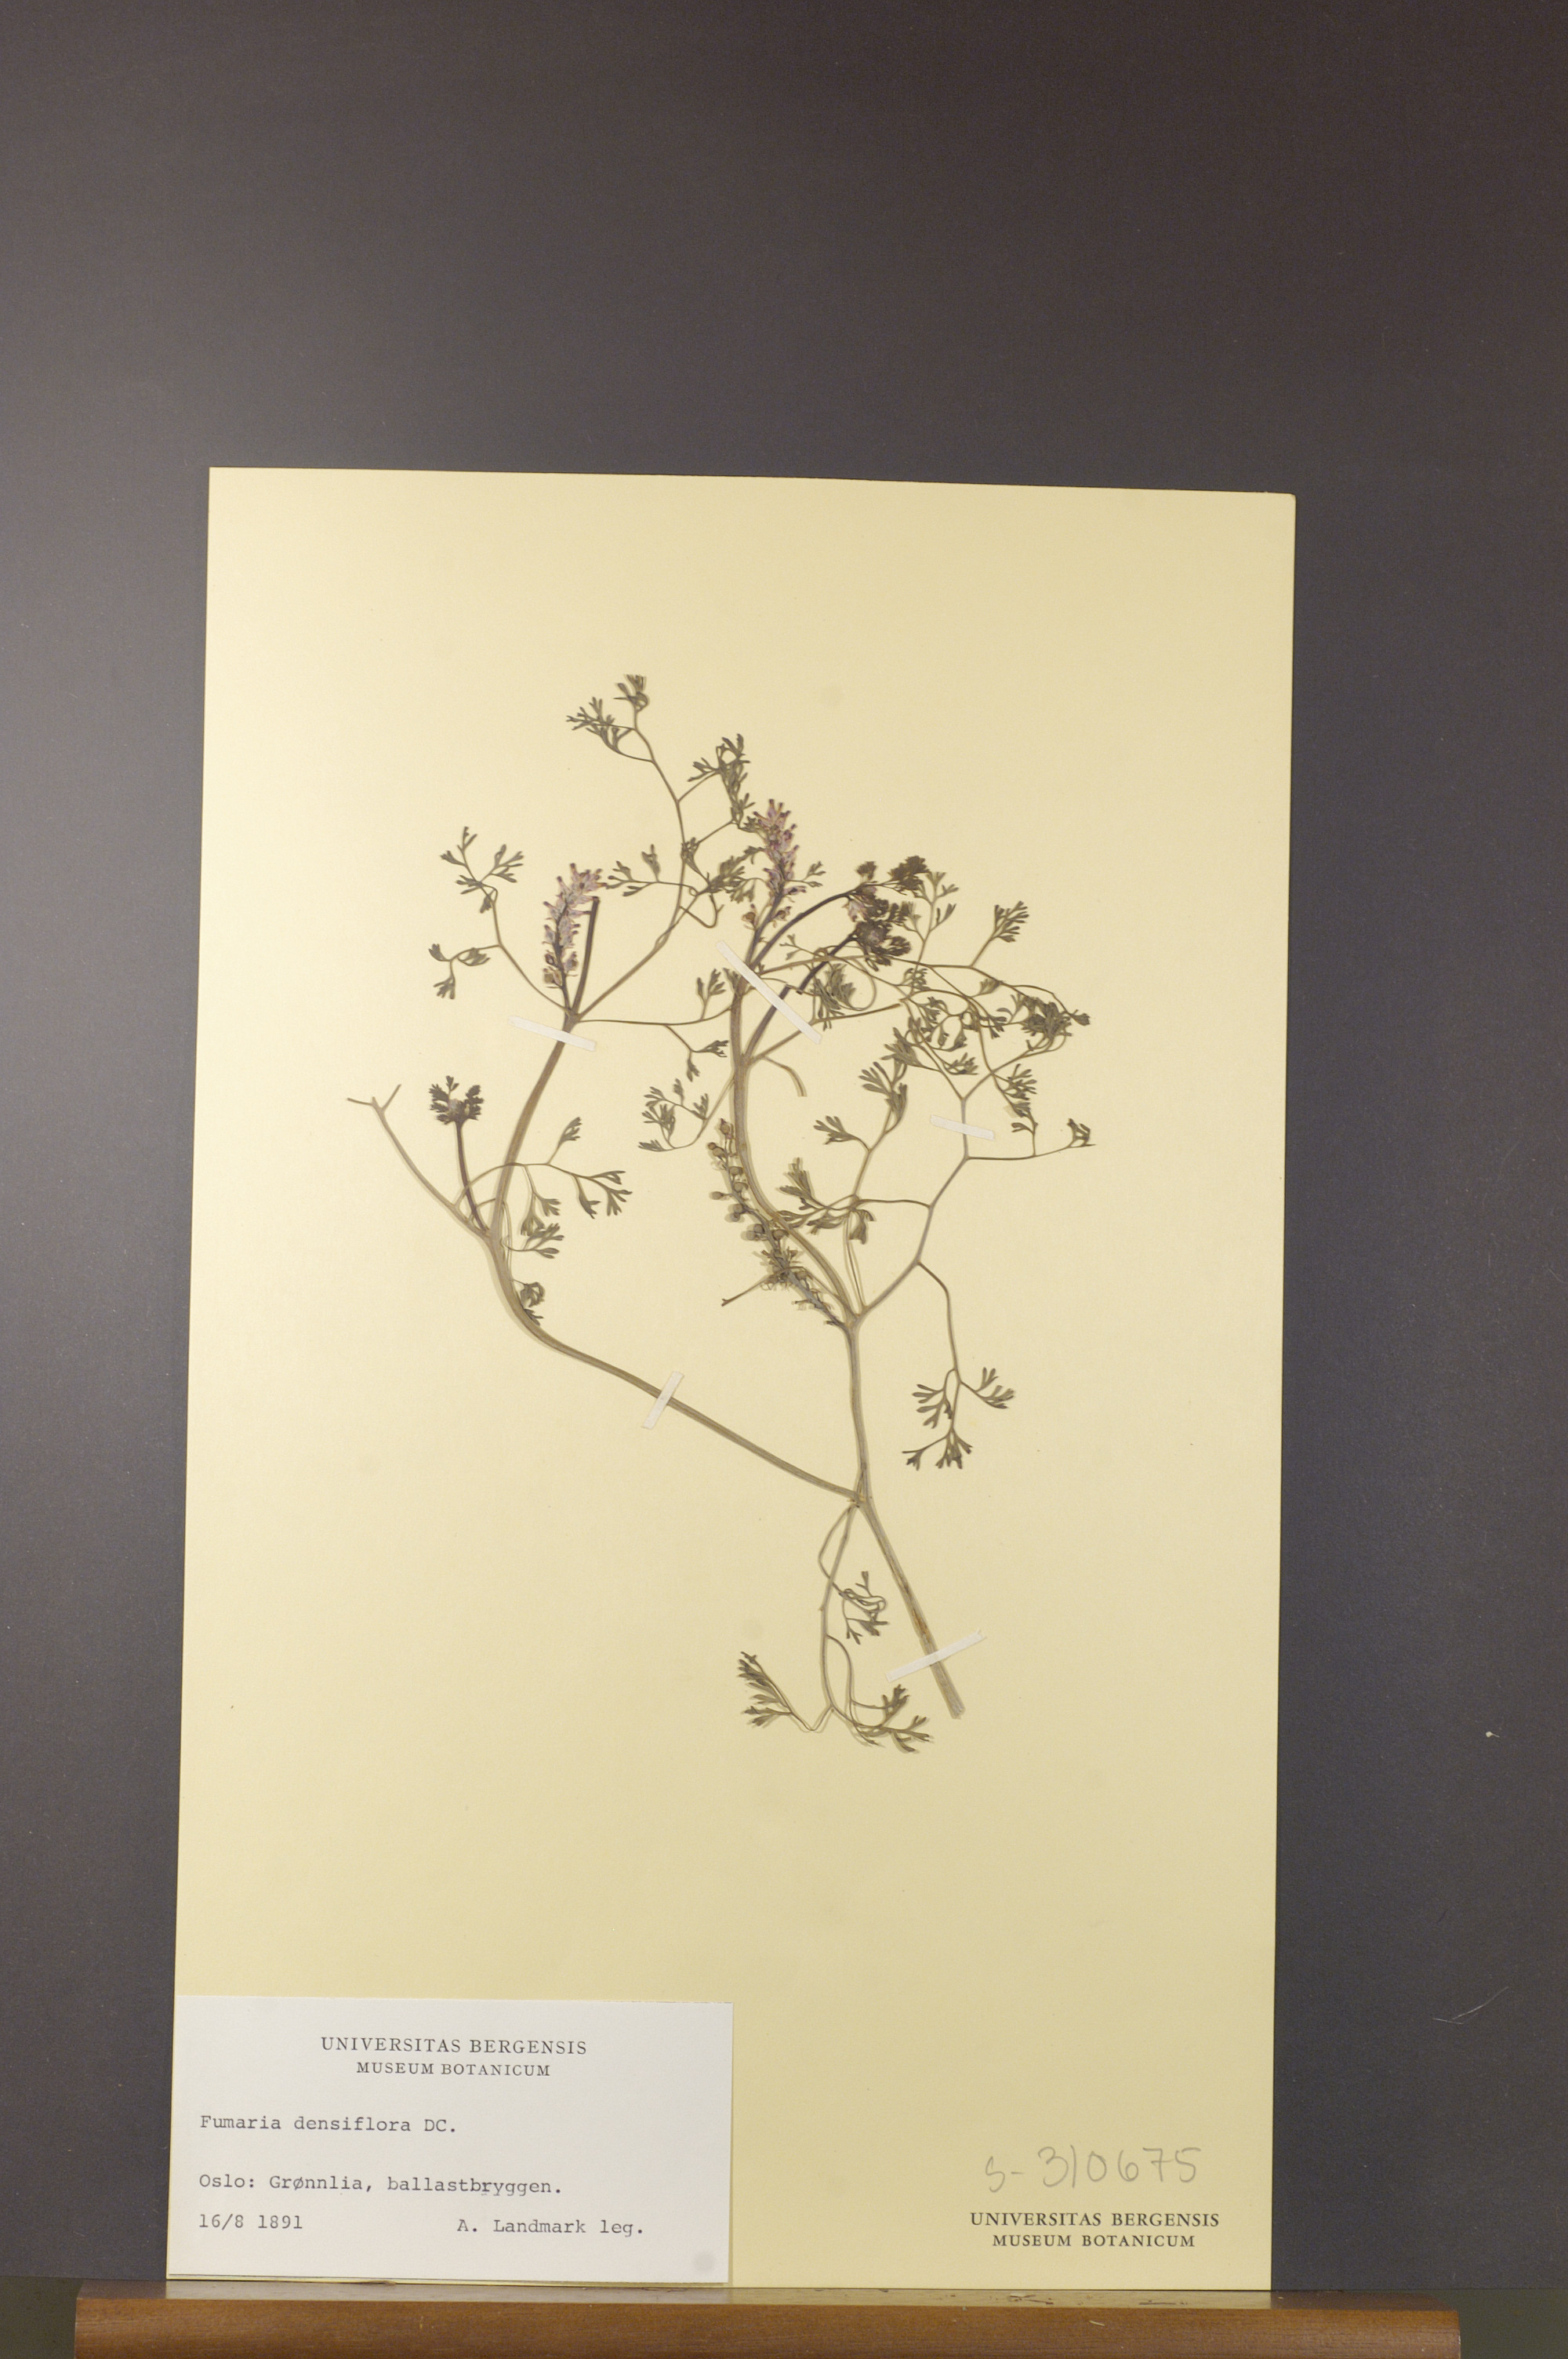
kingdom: Plantae
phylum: Tracheophyta
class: Magnoliopsida
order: Ranunculales
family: Papaveraceae
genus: Fumaria
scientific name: Fumaria densiflora
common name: Dense-flowered fumitory
